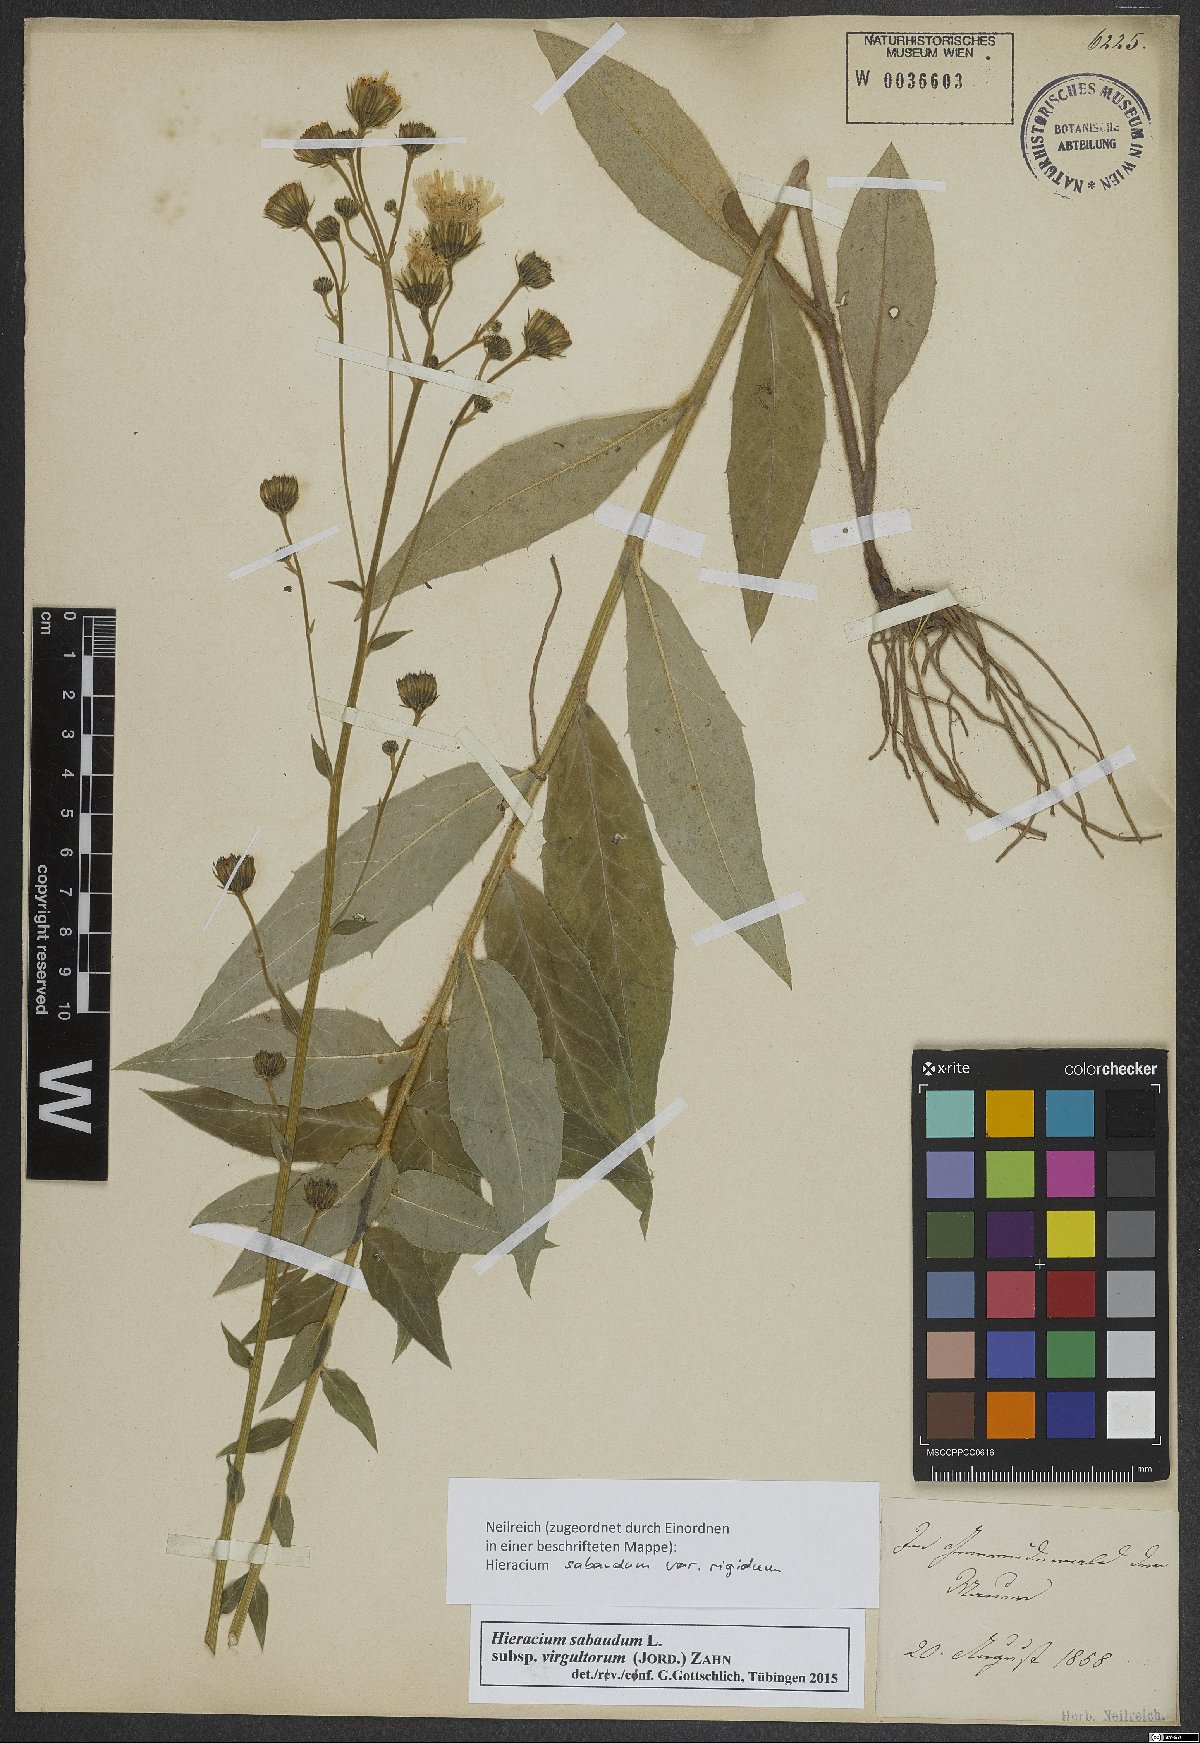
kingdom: Plantae
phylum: Tracheophyta
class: Magnoliopsida
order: Asterales
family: Asteraceae
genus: Hieracium
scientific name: Hieracium sabaudum
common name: New england hawkweed
